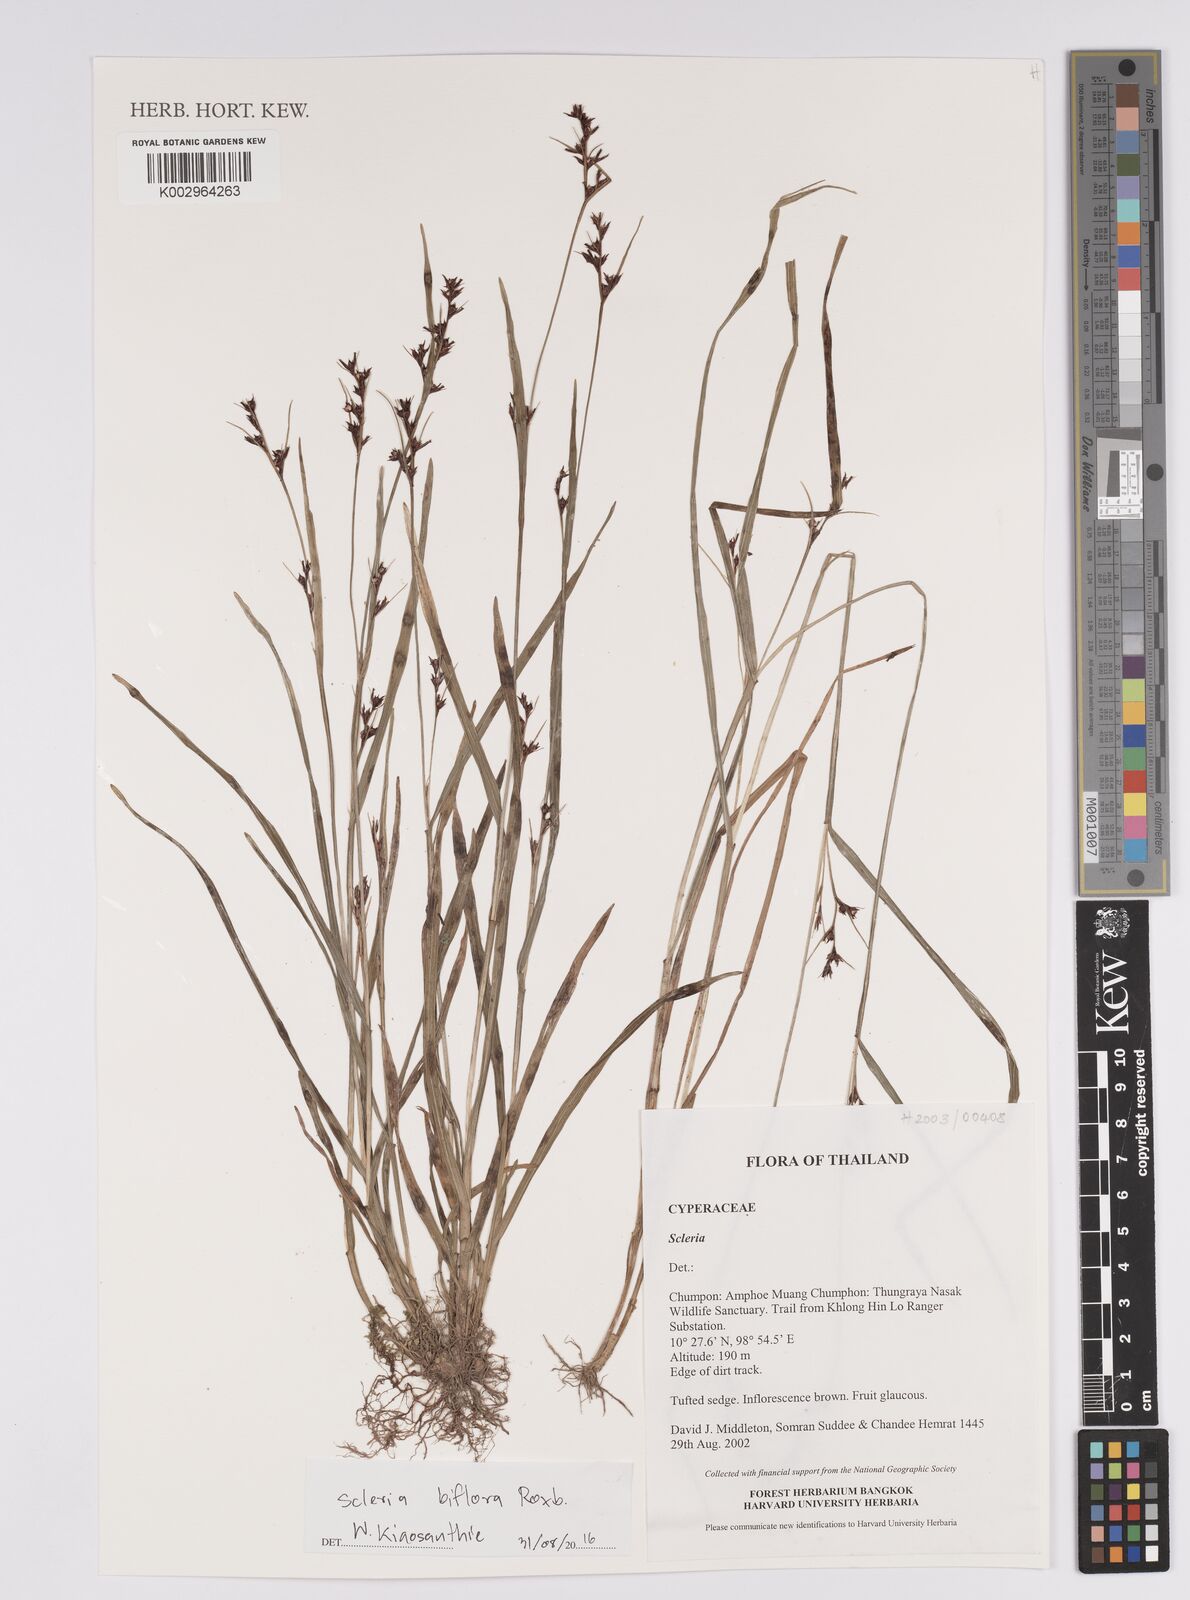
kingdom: Plantae
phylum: Tracheophyta
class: Liliopsida
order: Poales
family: Cyperaceae
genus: Scleria
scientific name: Scleria biflora
